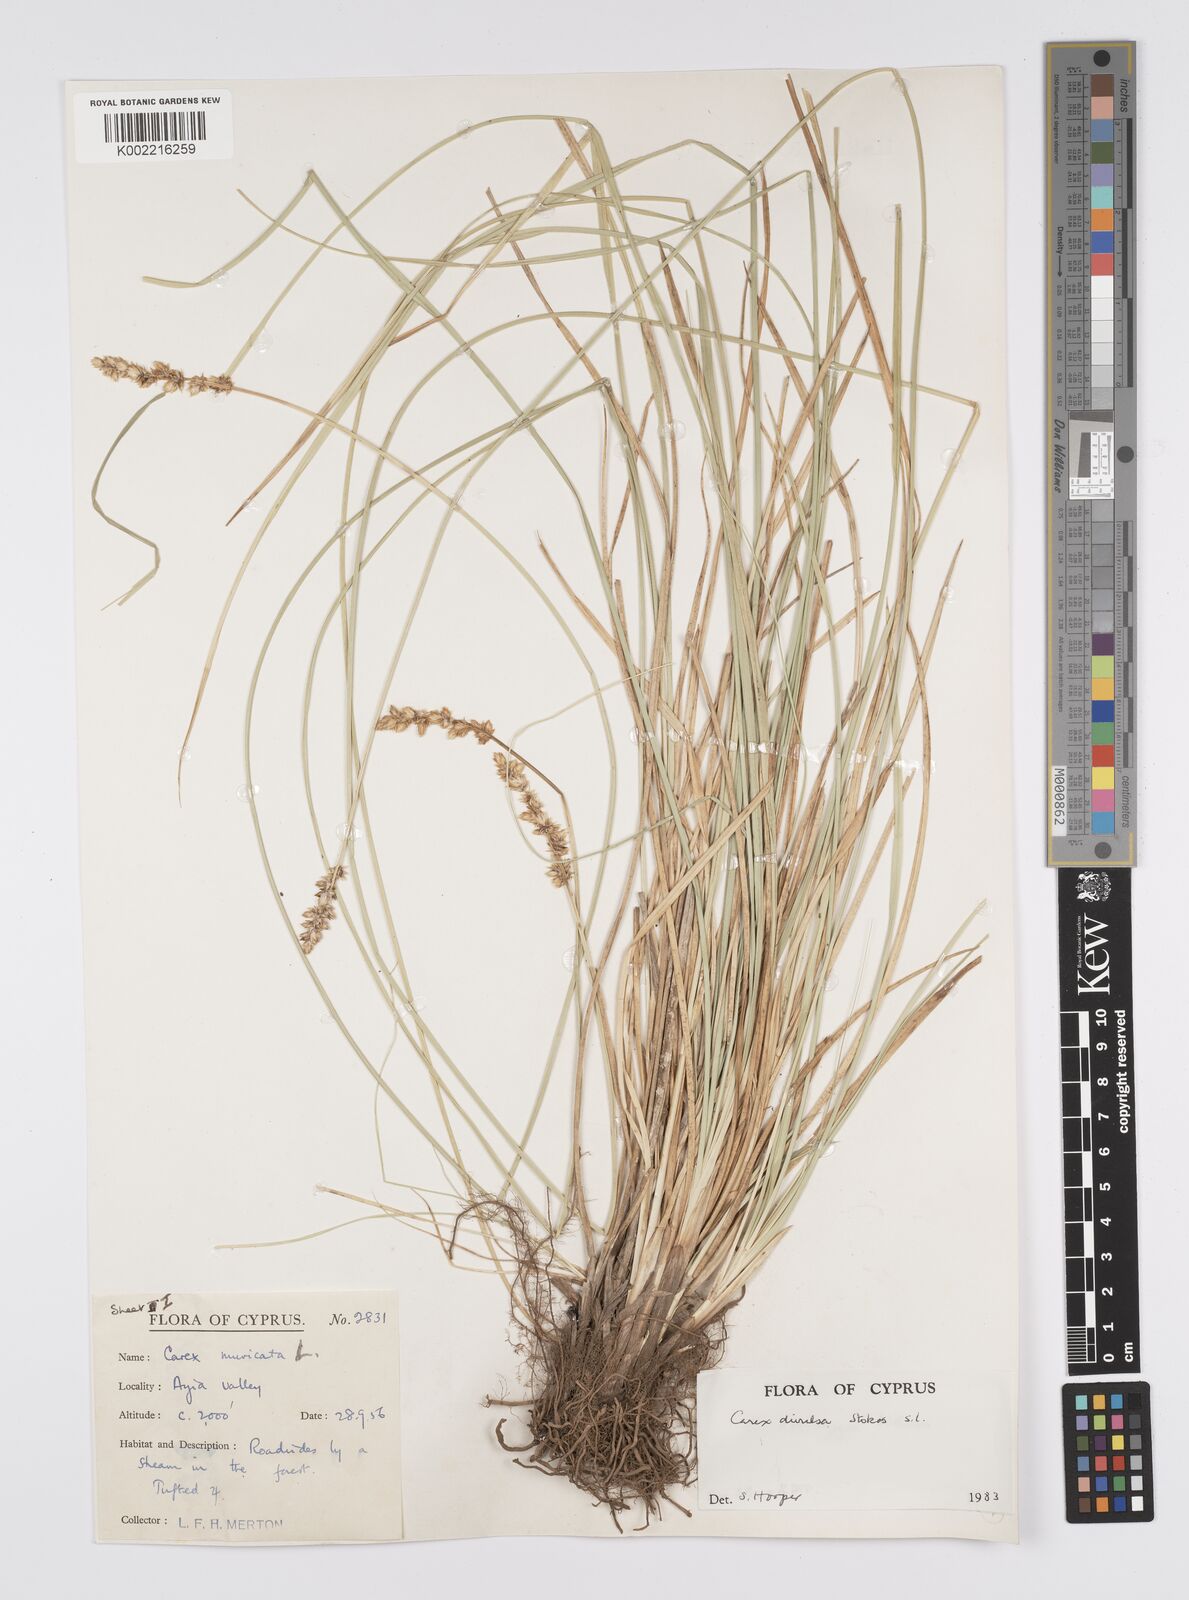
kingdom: Plantae
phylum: Tracheophyta
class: Liliopsida
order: Poales
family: Cyperaceae
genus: Carex
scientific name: Carex divulsa
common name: Grassland sedge
